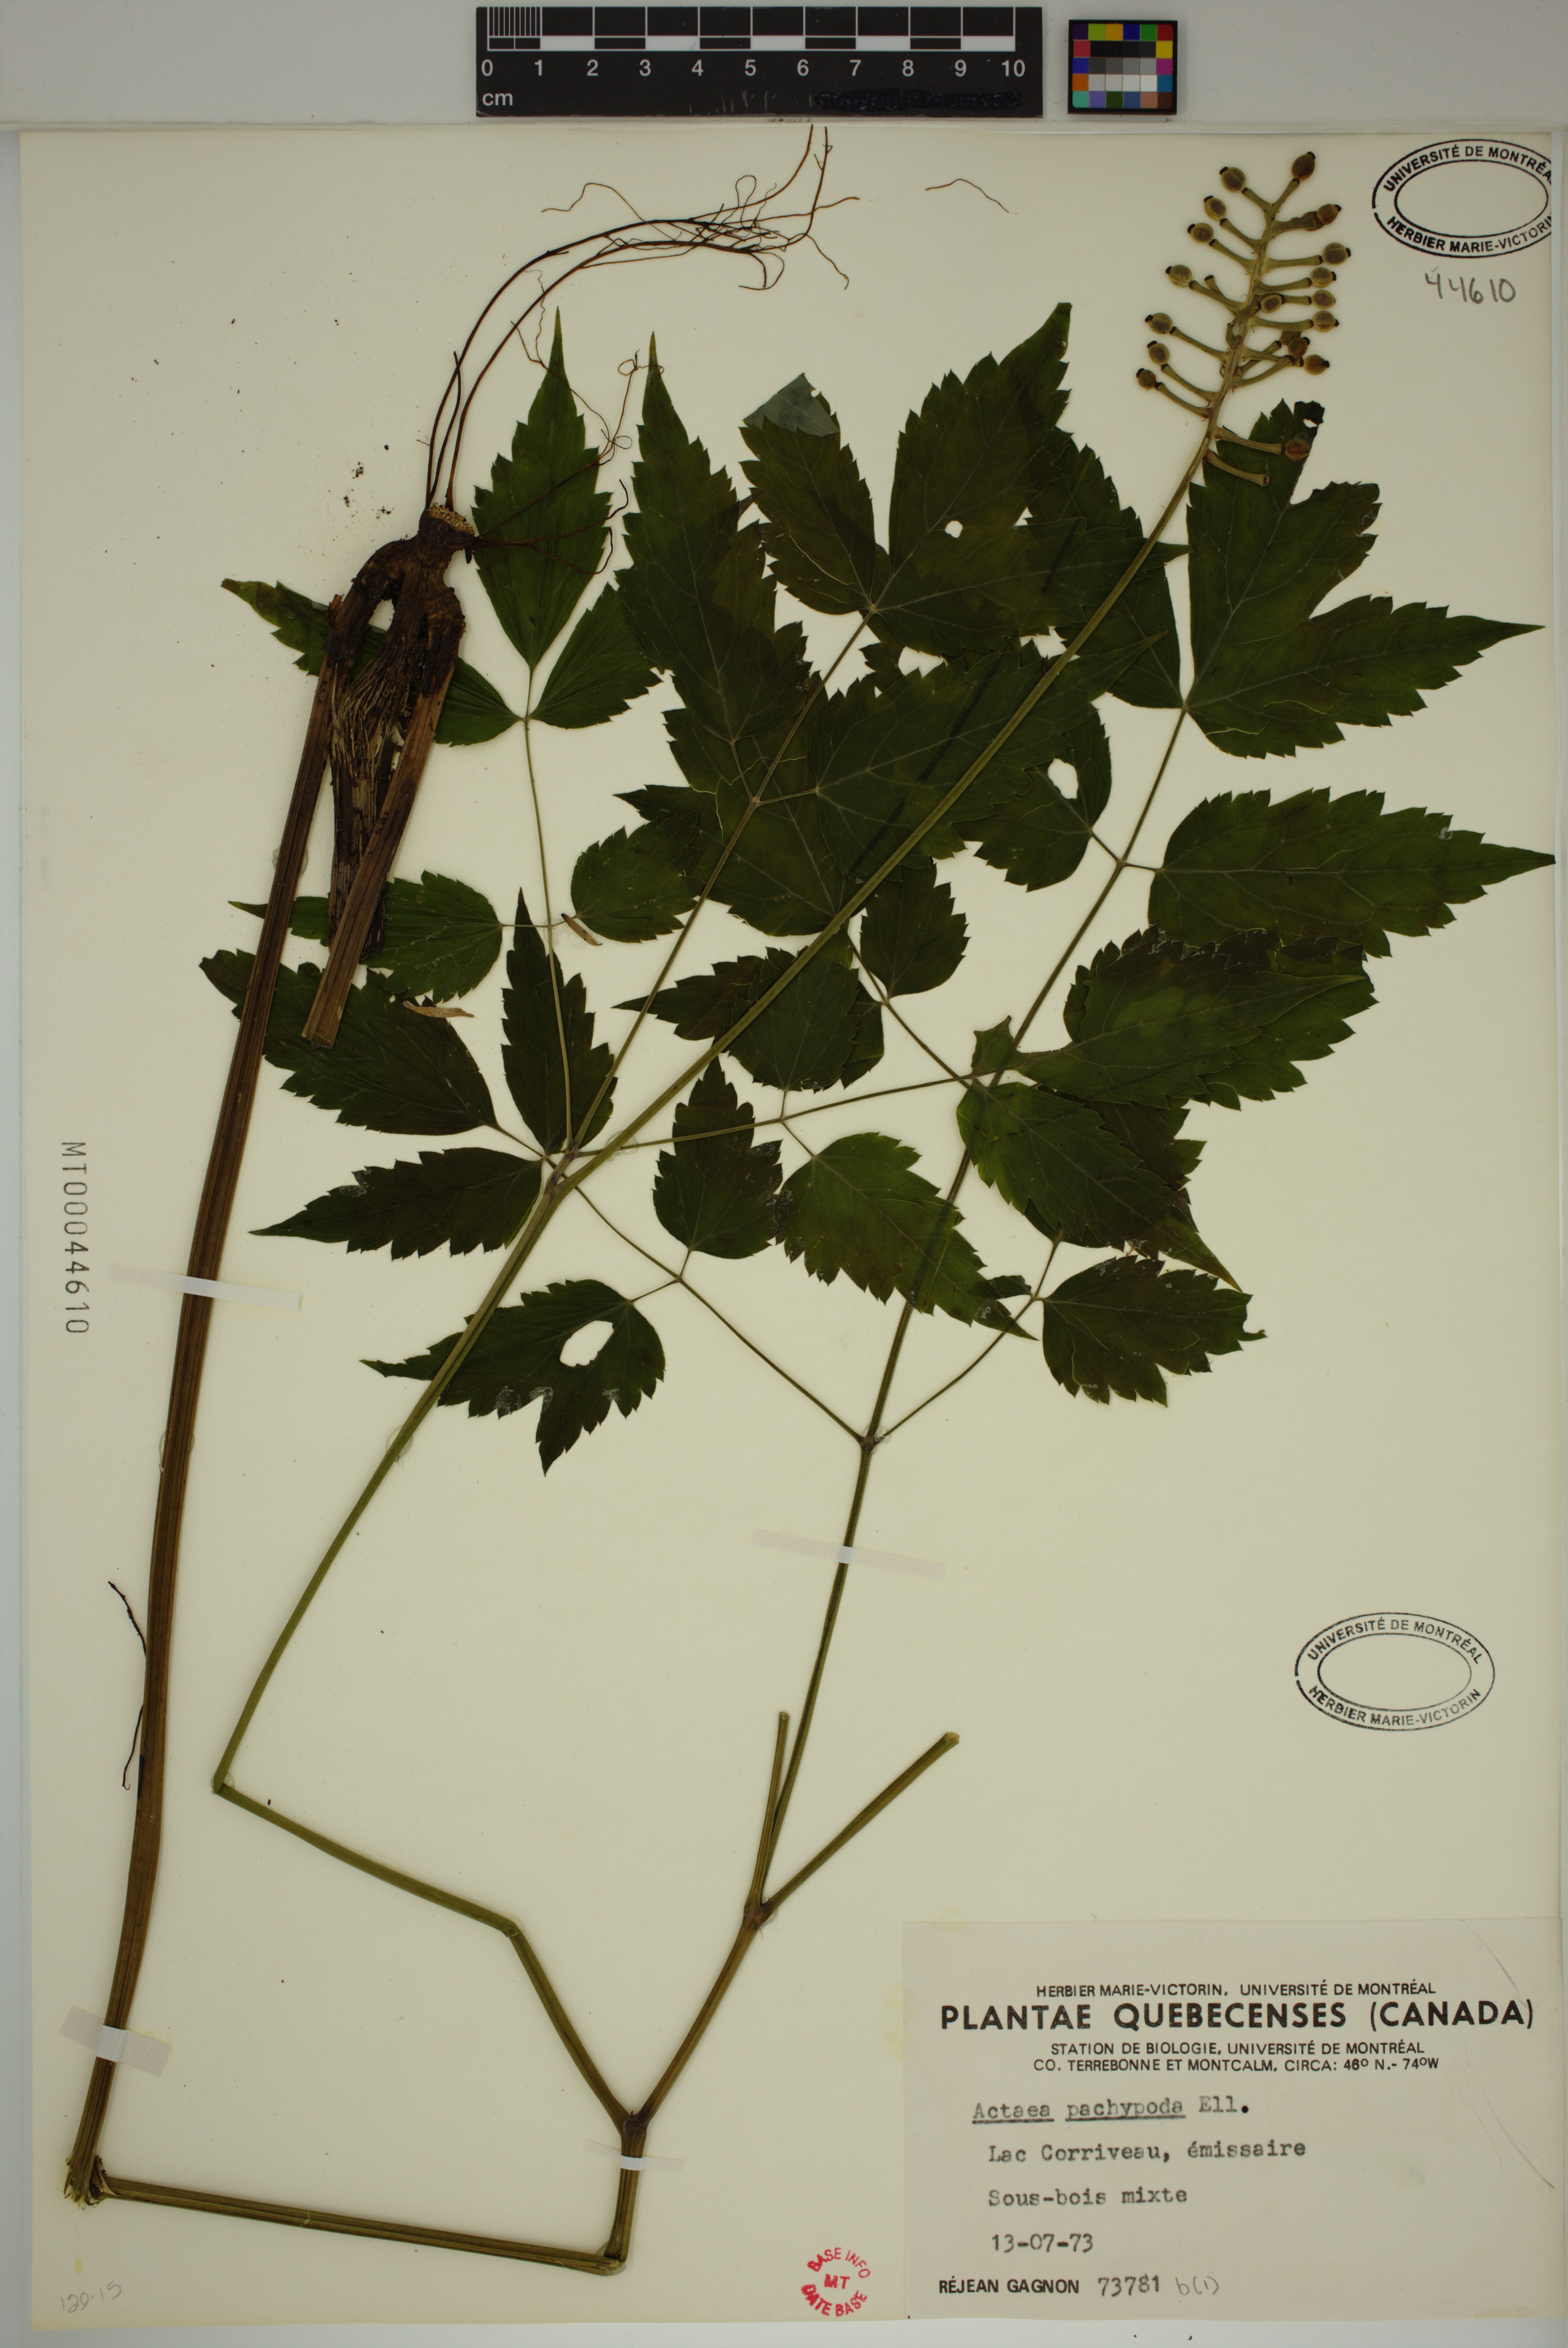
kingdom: Plantae
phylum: Tracheophyta
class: Magnoliopsida
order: Ranunculales
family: Ranunculaceae
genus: Actaea
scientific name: Actaea pachypoda
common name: Doll's-eyes
